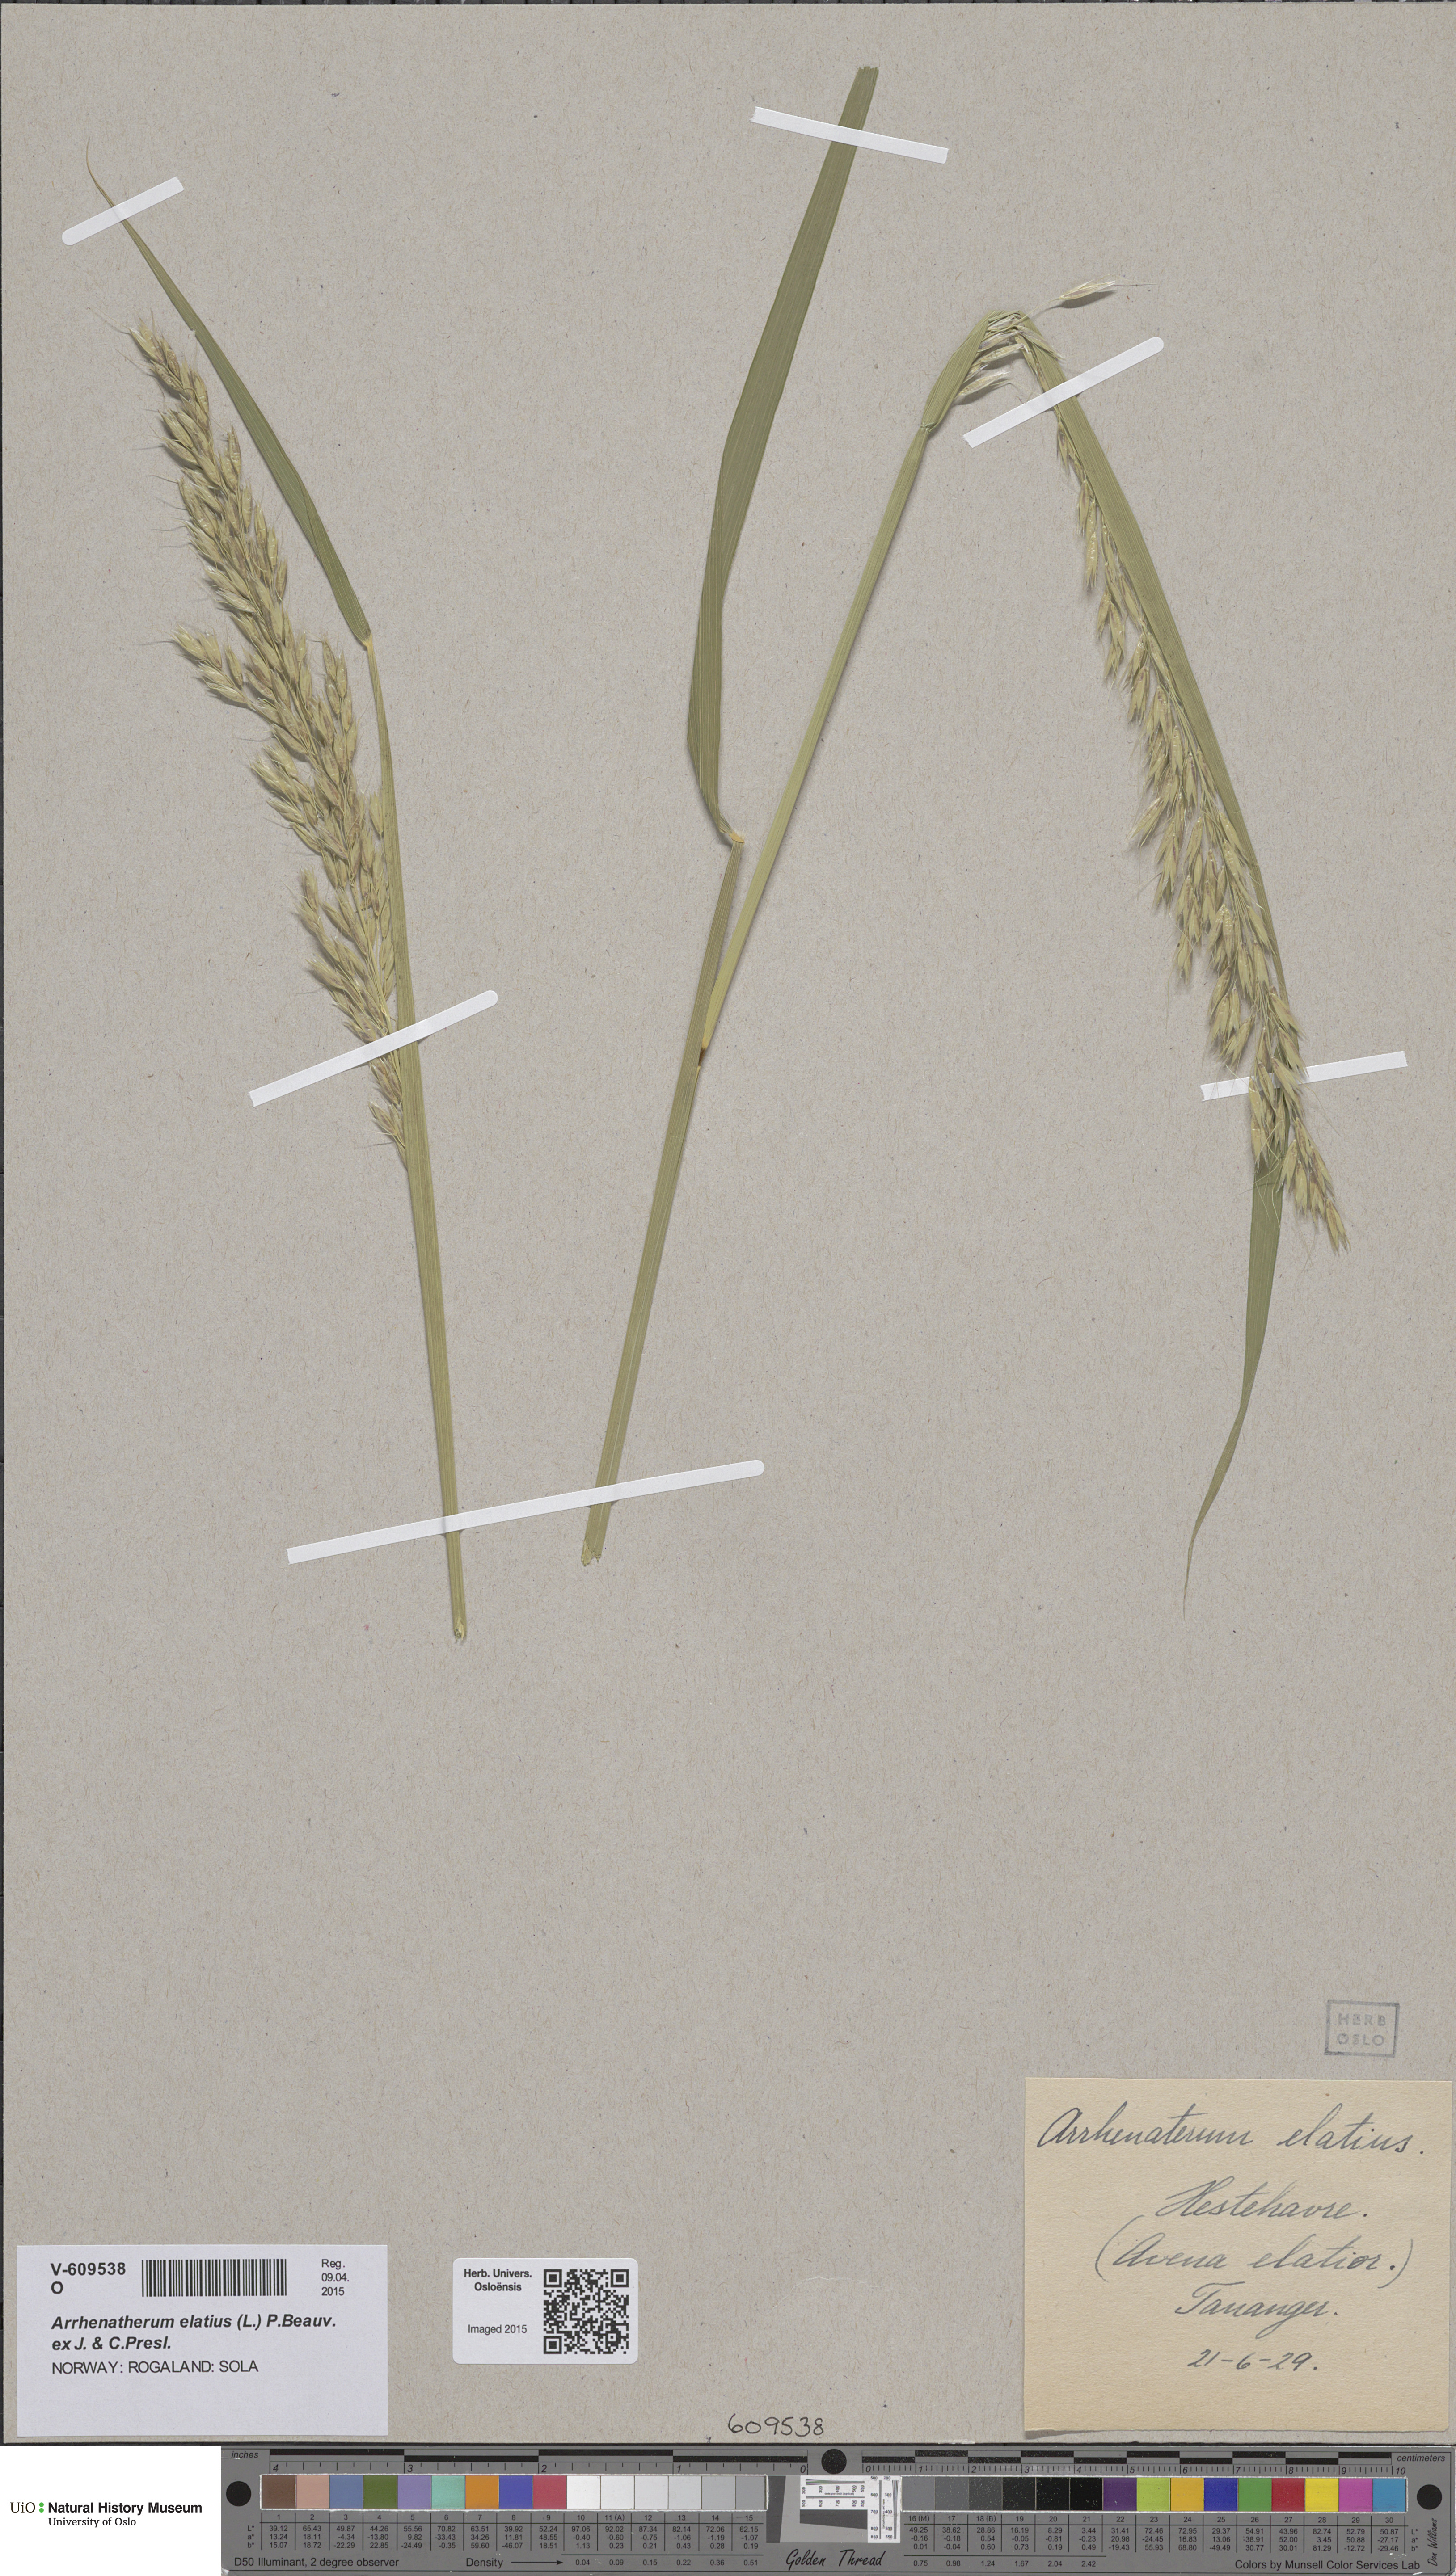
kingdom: Plantae
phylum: Tracheophyta
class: Liliopsida
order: Poales
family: Poaceae
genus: Arrhenatherum
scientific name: Arrhenatherum elatius
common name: Tall oatgrass
